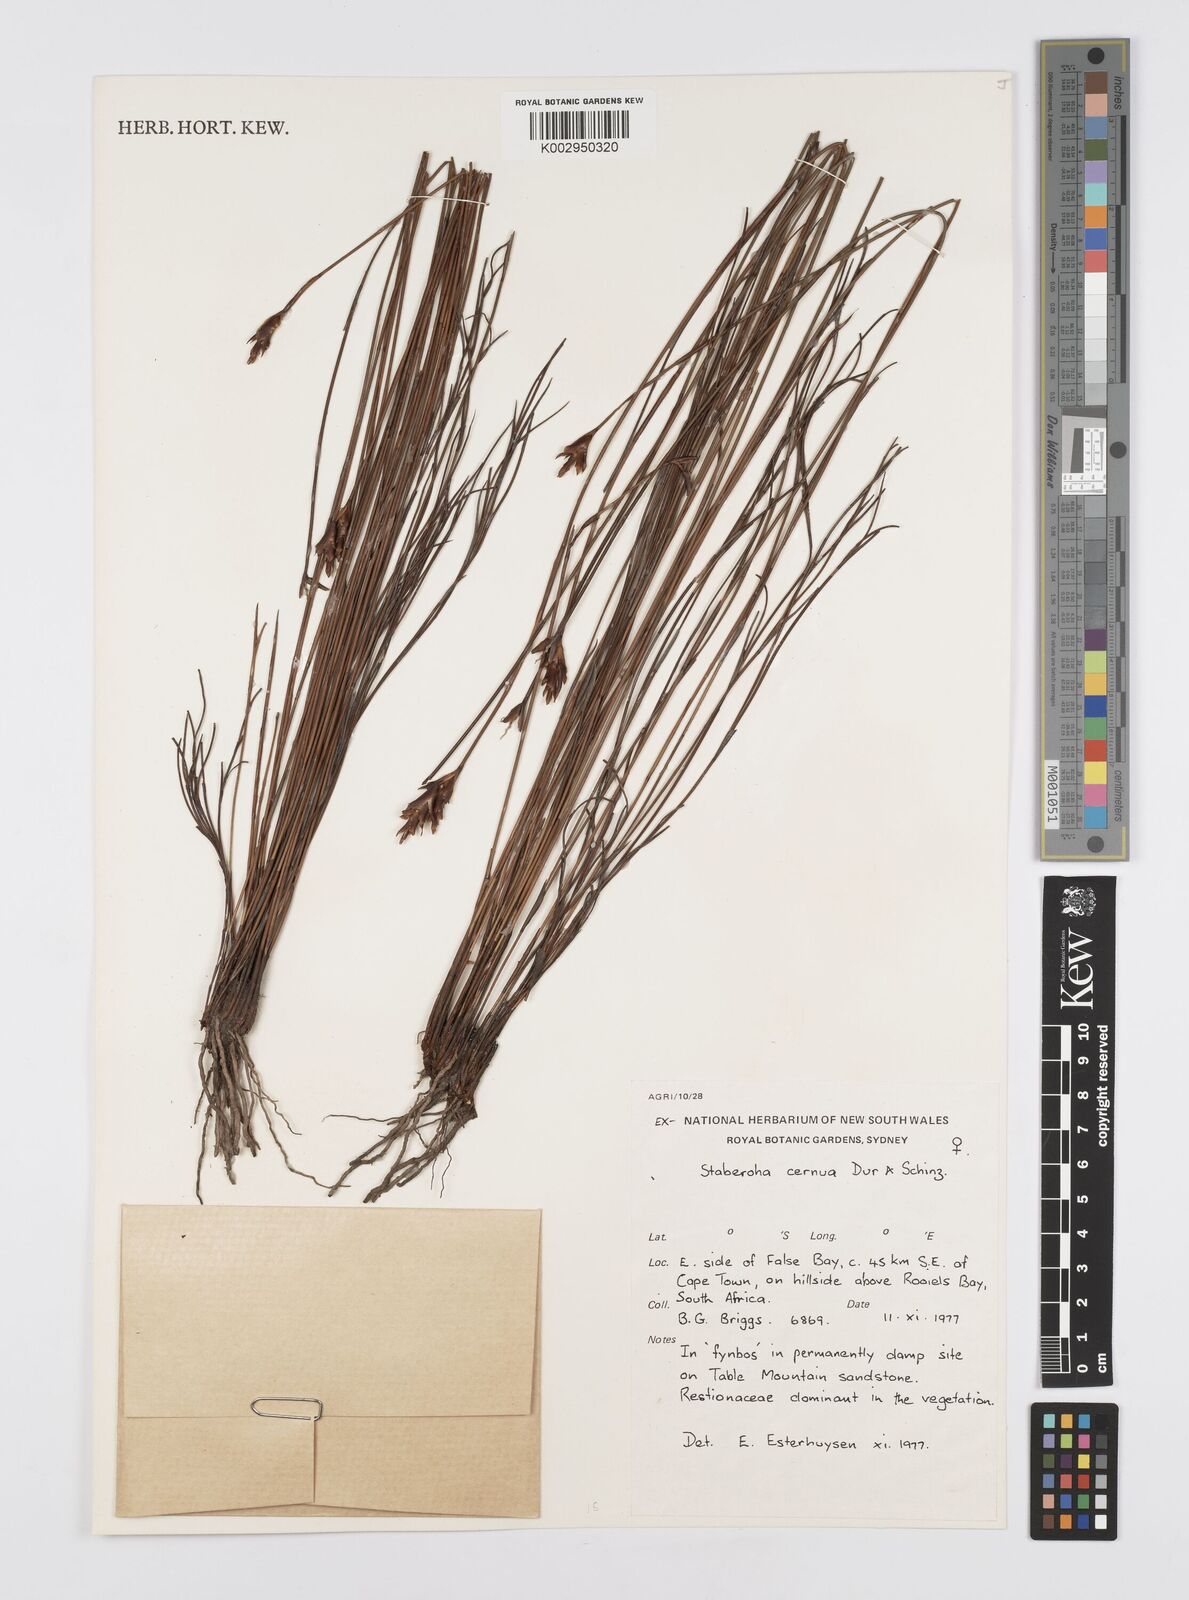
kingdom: Plantae
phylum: Tracheophyta
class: Liliopsida
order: Poales
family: Restionaceae
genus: Staberoha
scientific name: Staberoha cernua
